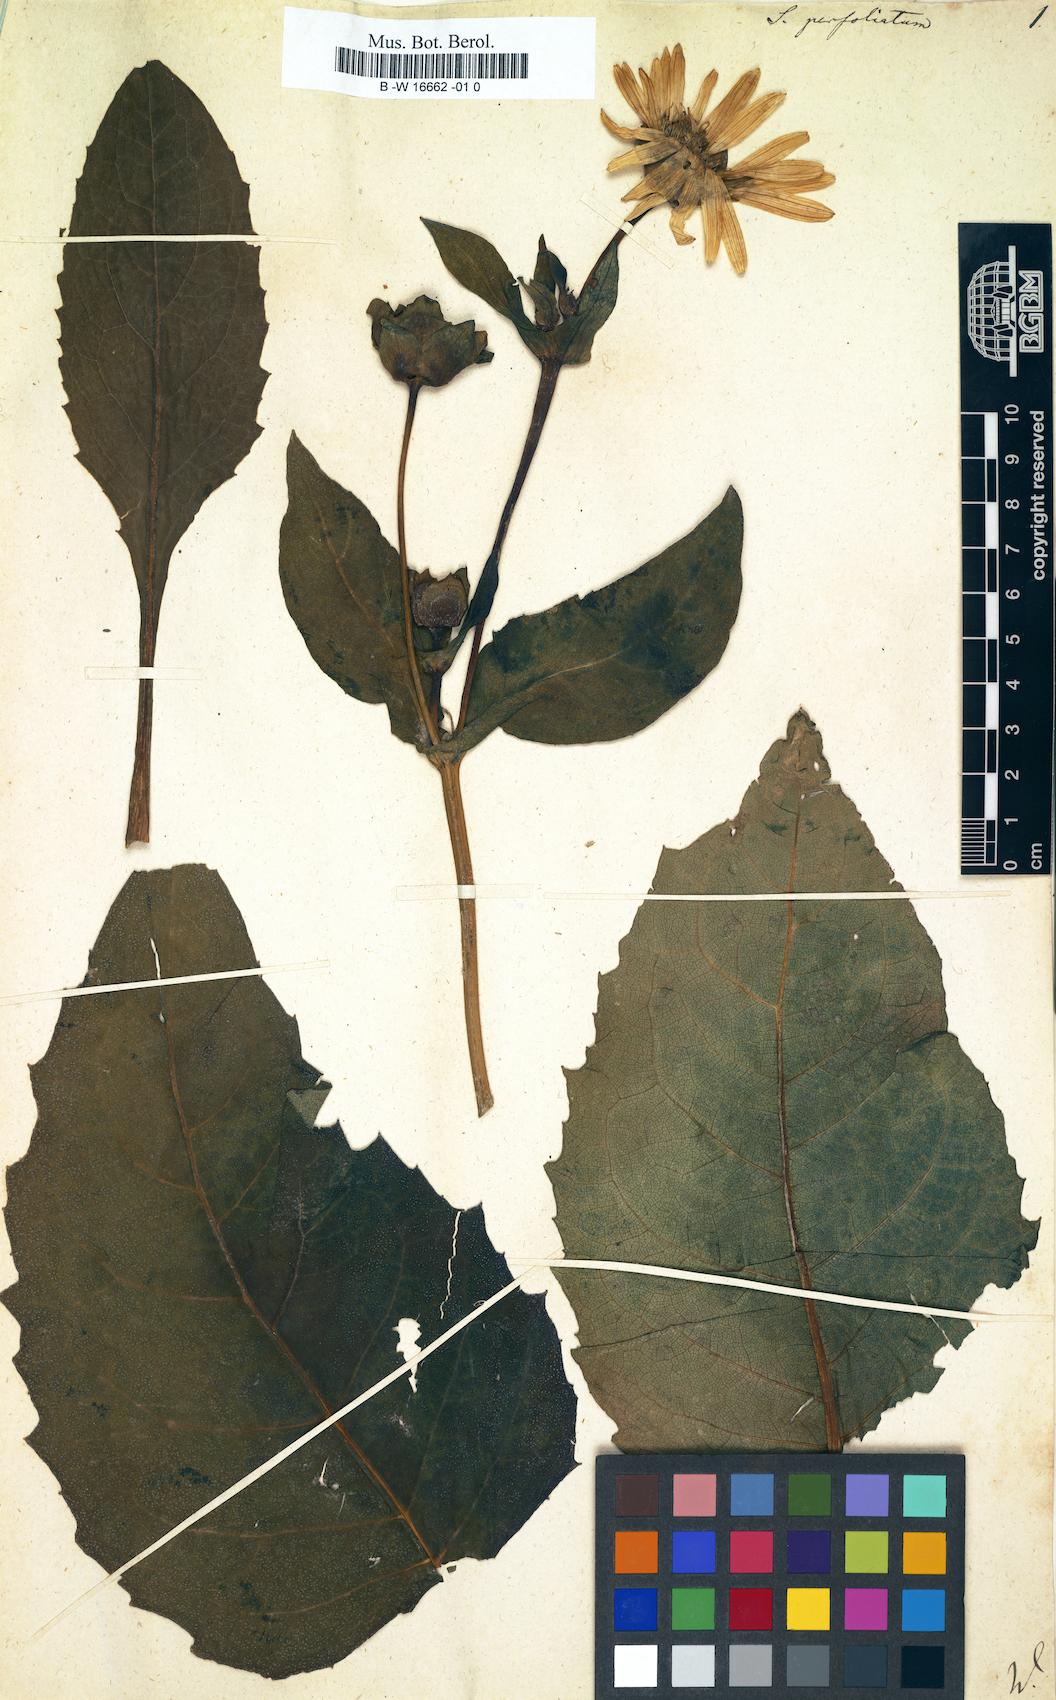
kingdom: Plantae
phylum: Tracheophyta
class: Magnoliopsida
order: Asterales
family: Asteraceae
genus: Silphium
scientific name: Silphium perfoliatum
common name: Cup-plant
